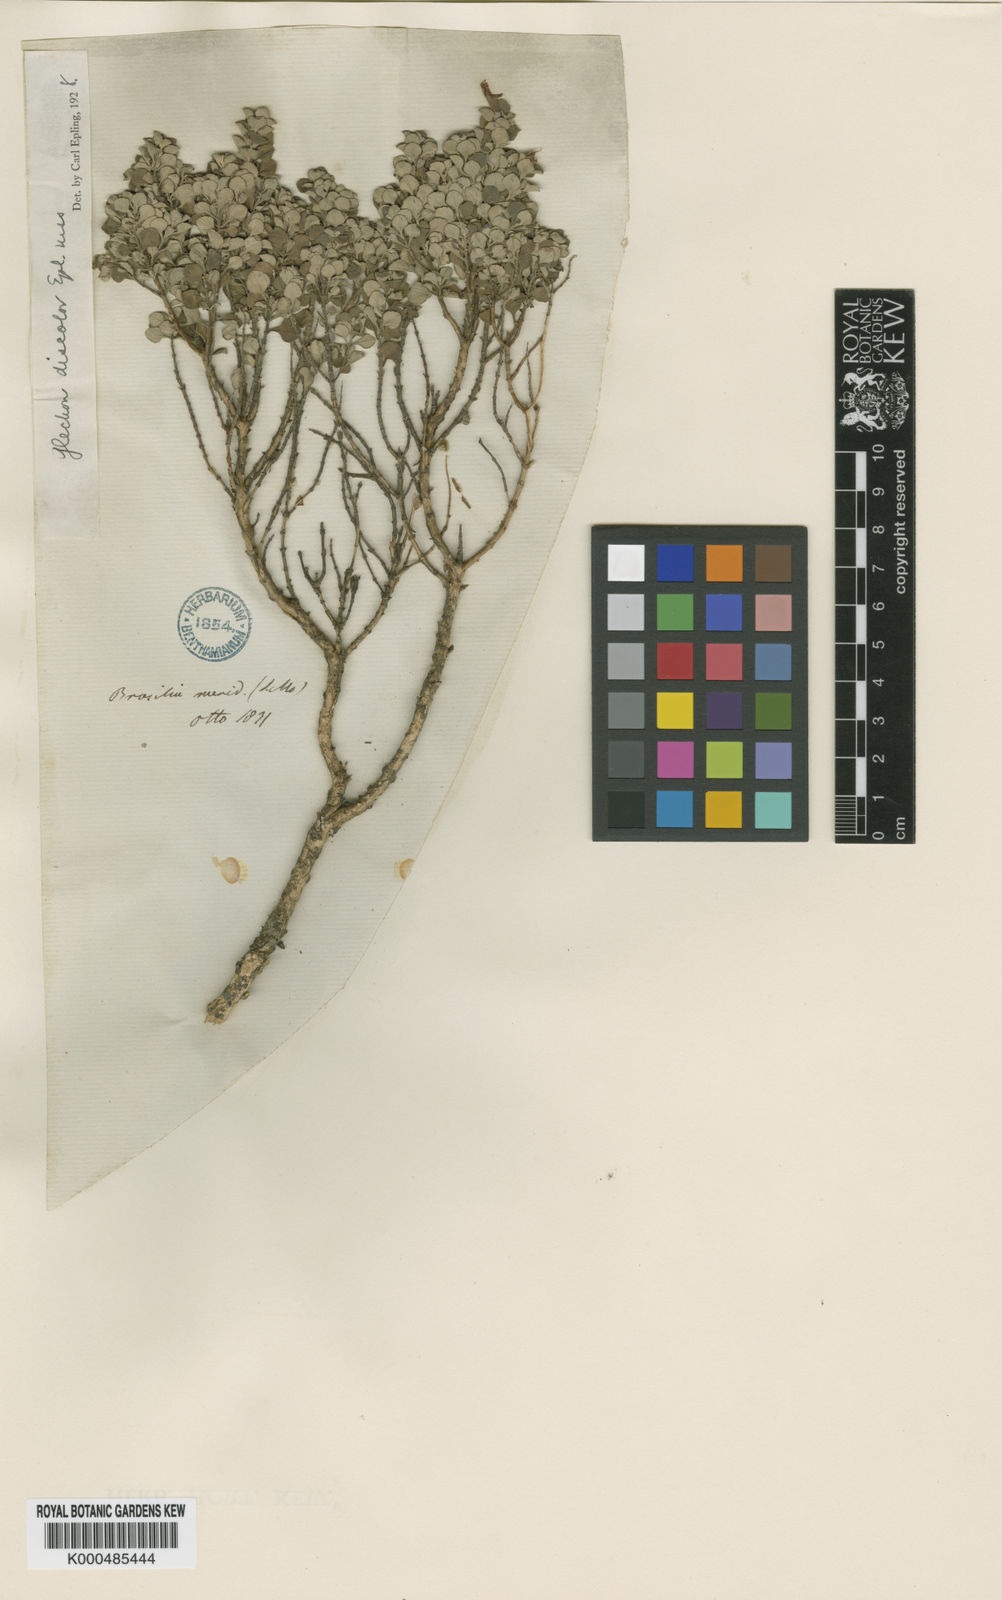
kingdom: Plantae
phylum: Tracheophyta
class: Magnoliopsida
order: Lamiales
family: Lamiaceae
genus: Glechon
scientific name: Glechon discolor
